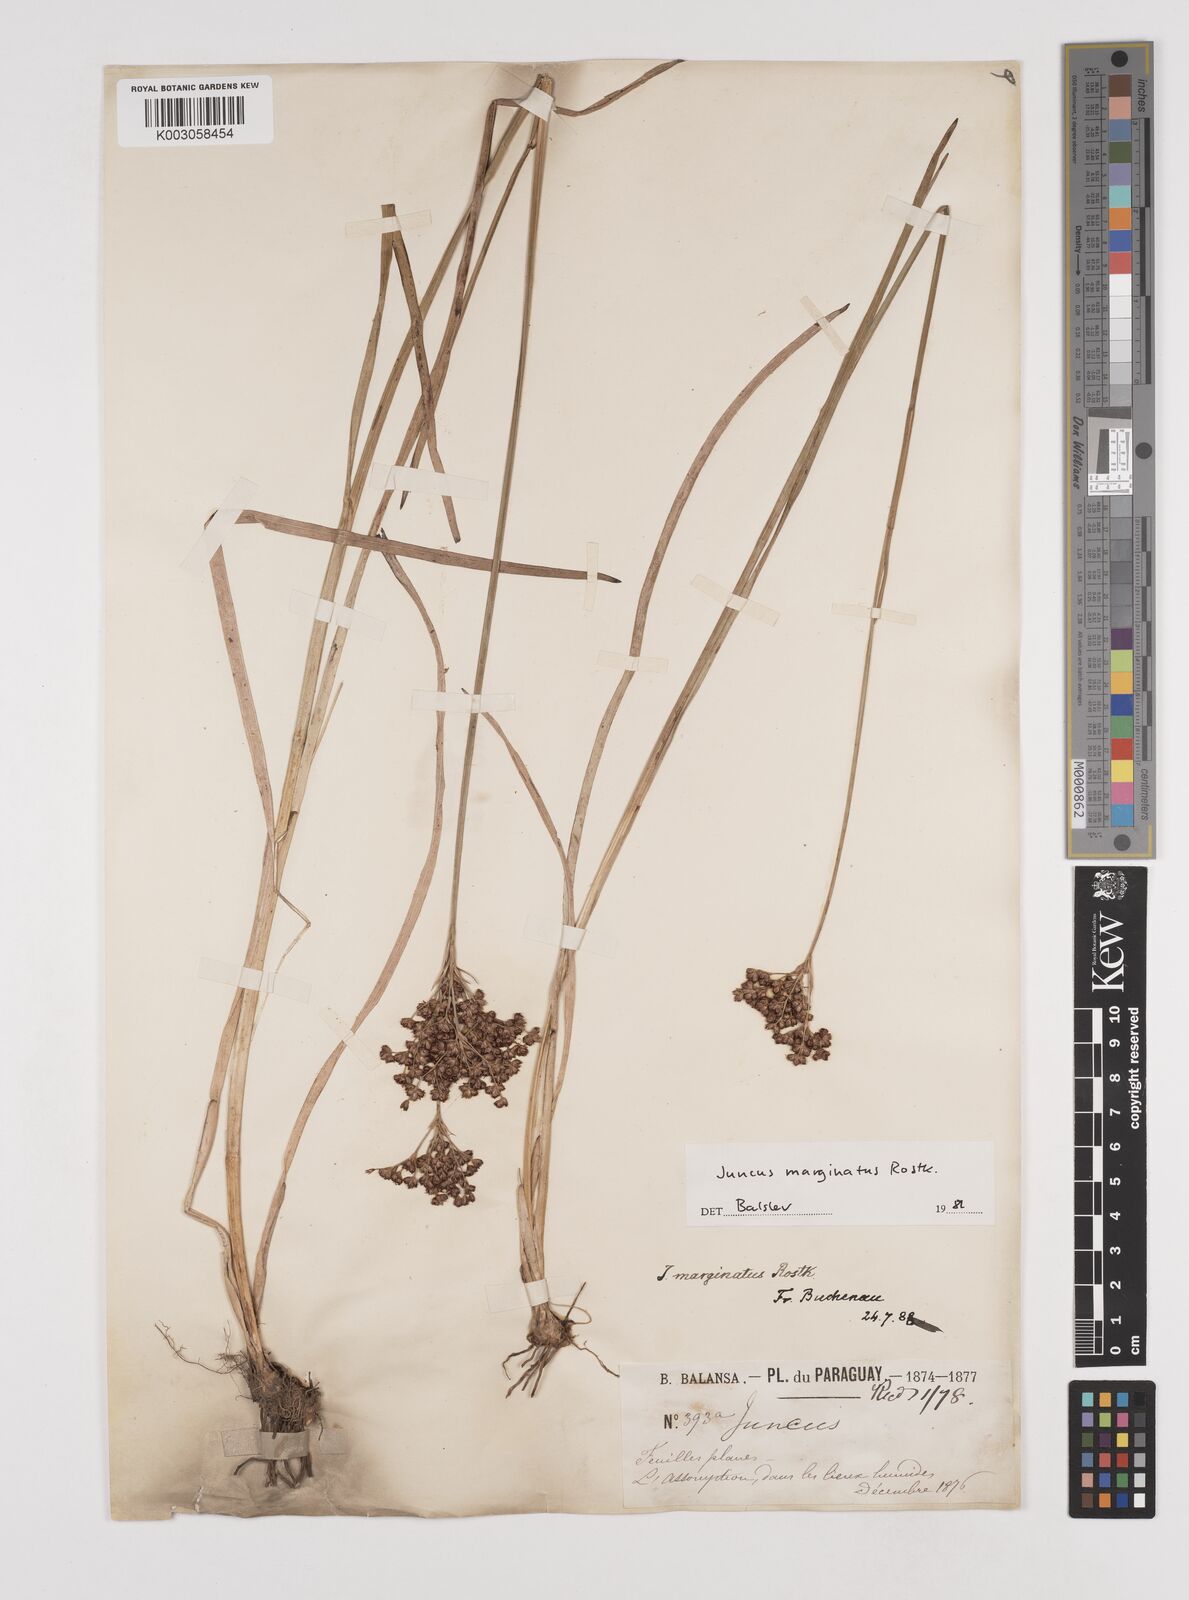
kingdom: Plantae
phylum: Tracheophyta
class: Liliopsida
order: Poales
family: Juncaceae
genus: Juncus
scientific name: Juncus marginatus
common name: Grass-leaf rush
